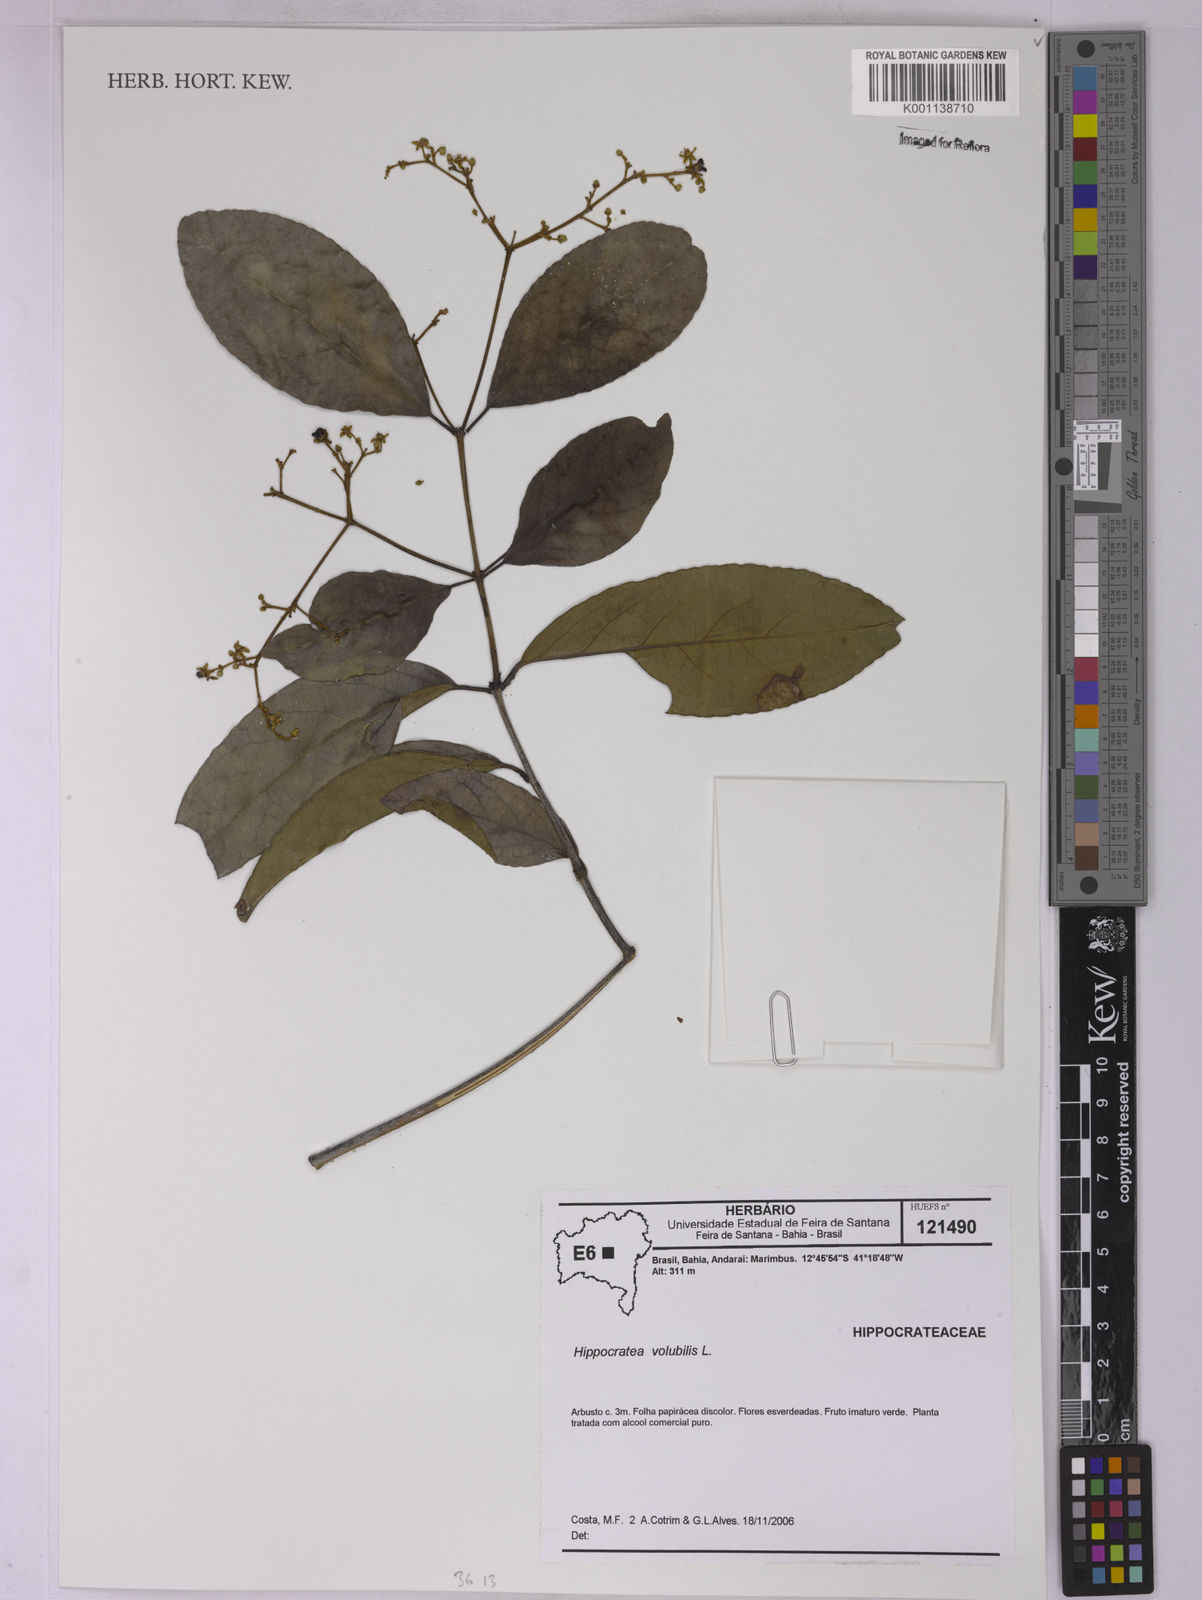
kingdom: Plantae
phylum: Tracheophyta
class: Magnoliopsida
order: Celastrales
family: Celastraceae
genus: Hippocratea
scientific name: Hippocratea volubilis
